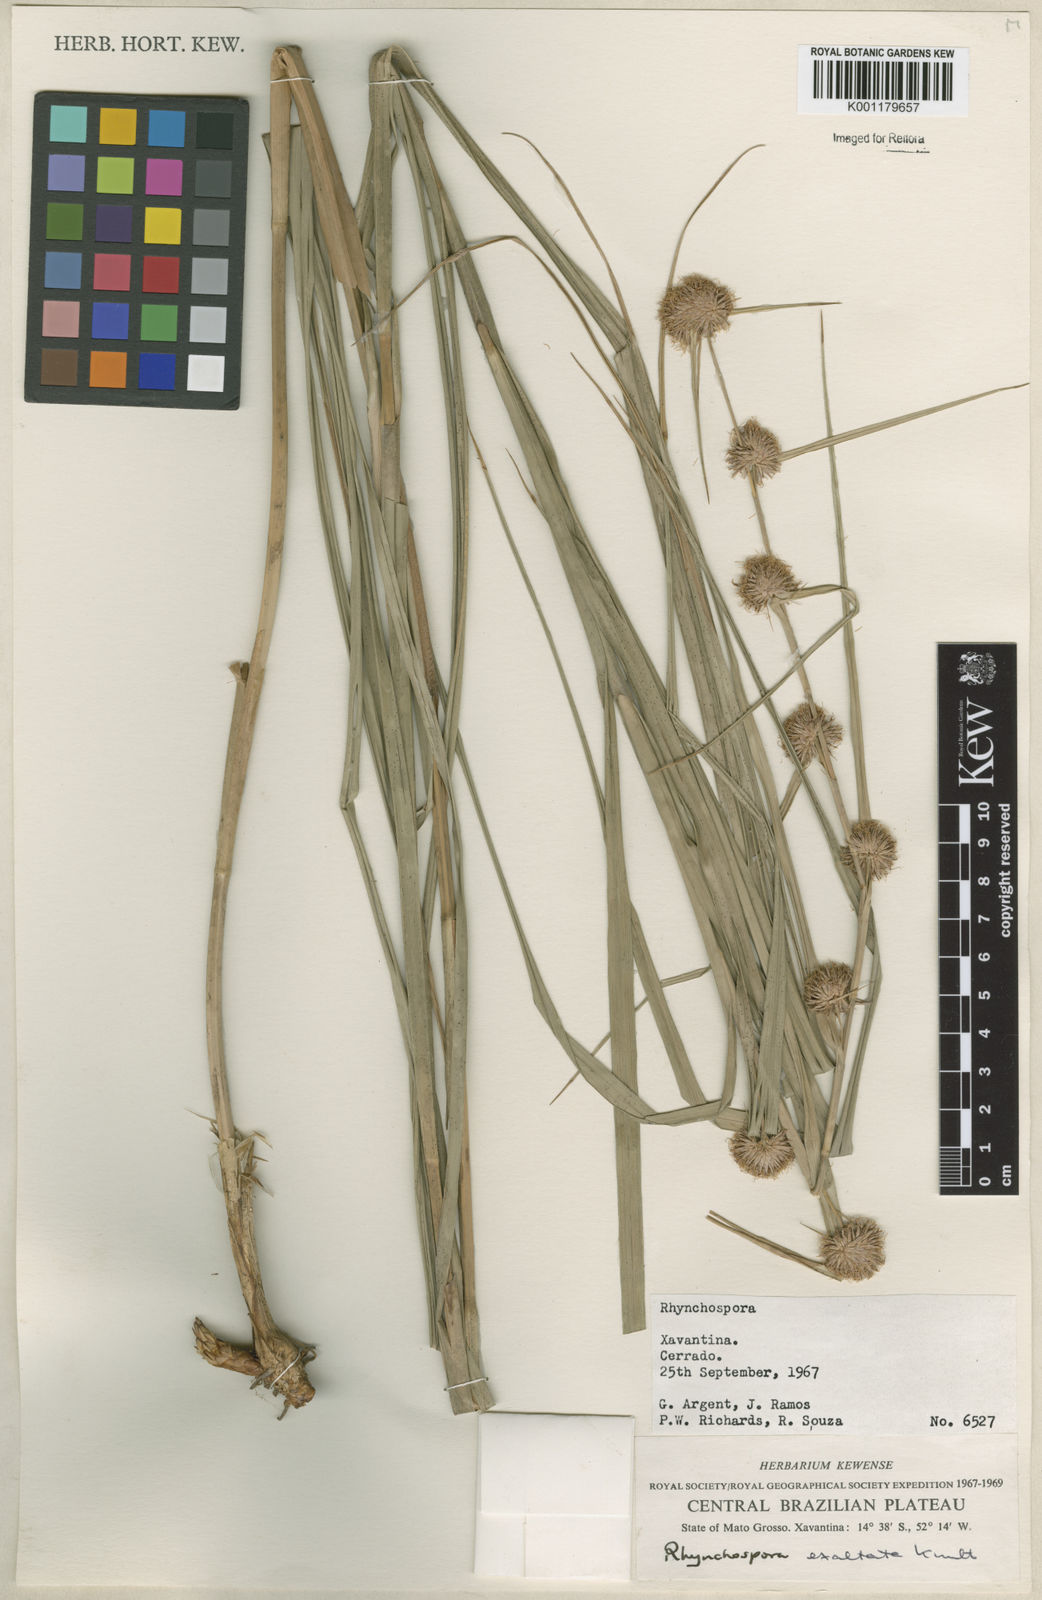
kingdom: Plantae
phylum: Tracheophyta
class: Liliopsida
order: Poales
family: Cyperaceae
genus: Rhynchospora
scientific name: Rhynchospora exaltata
